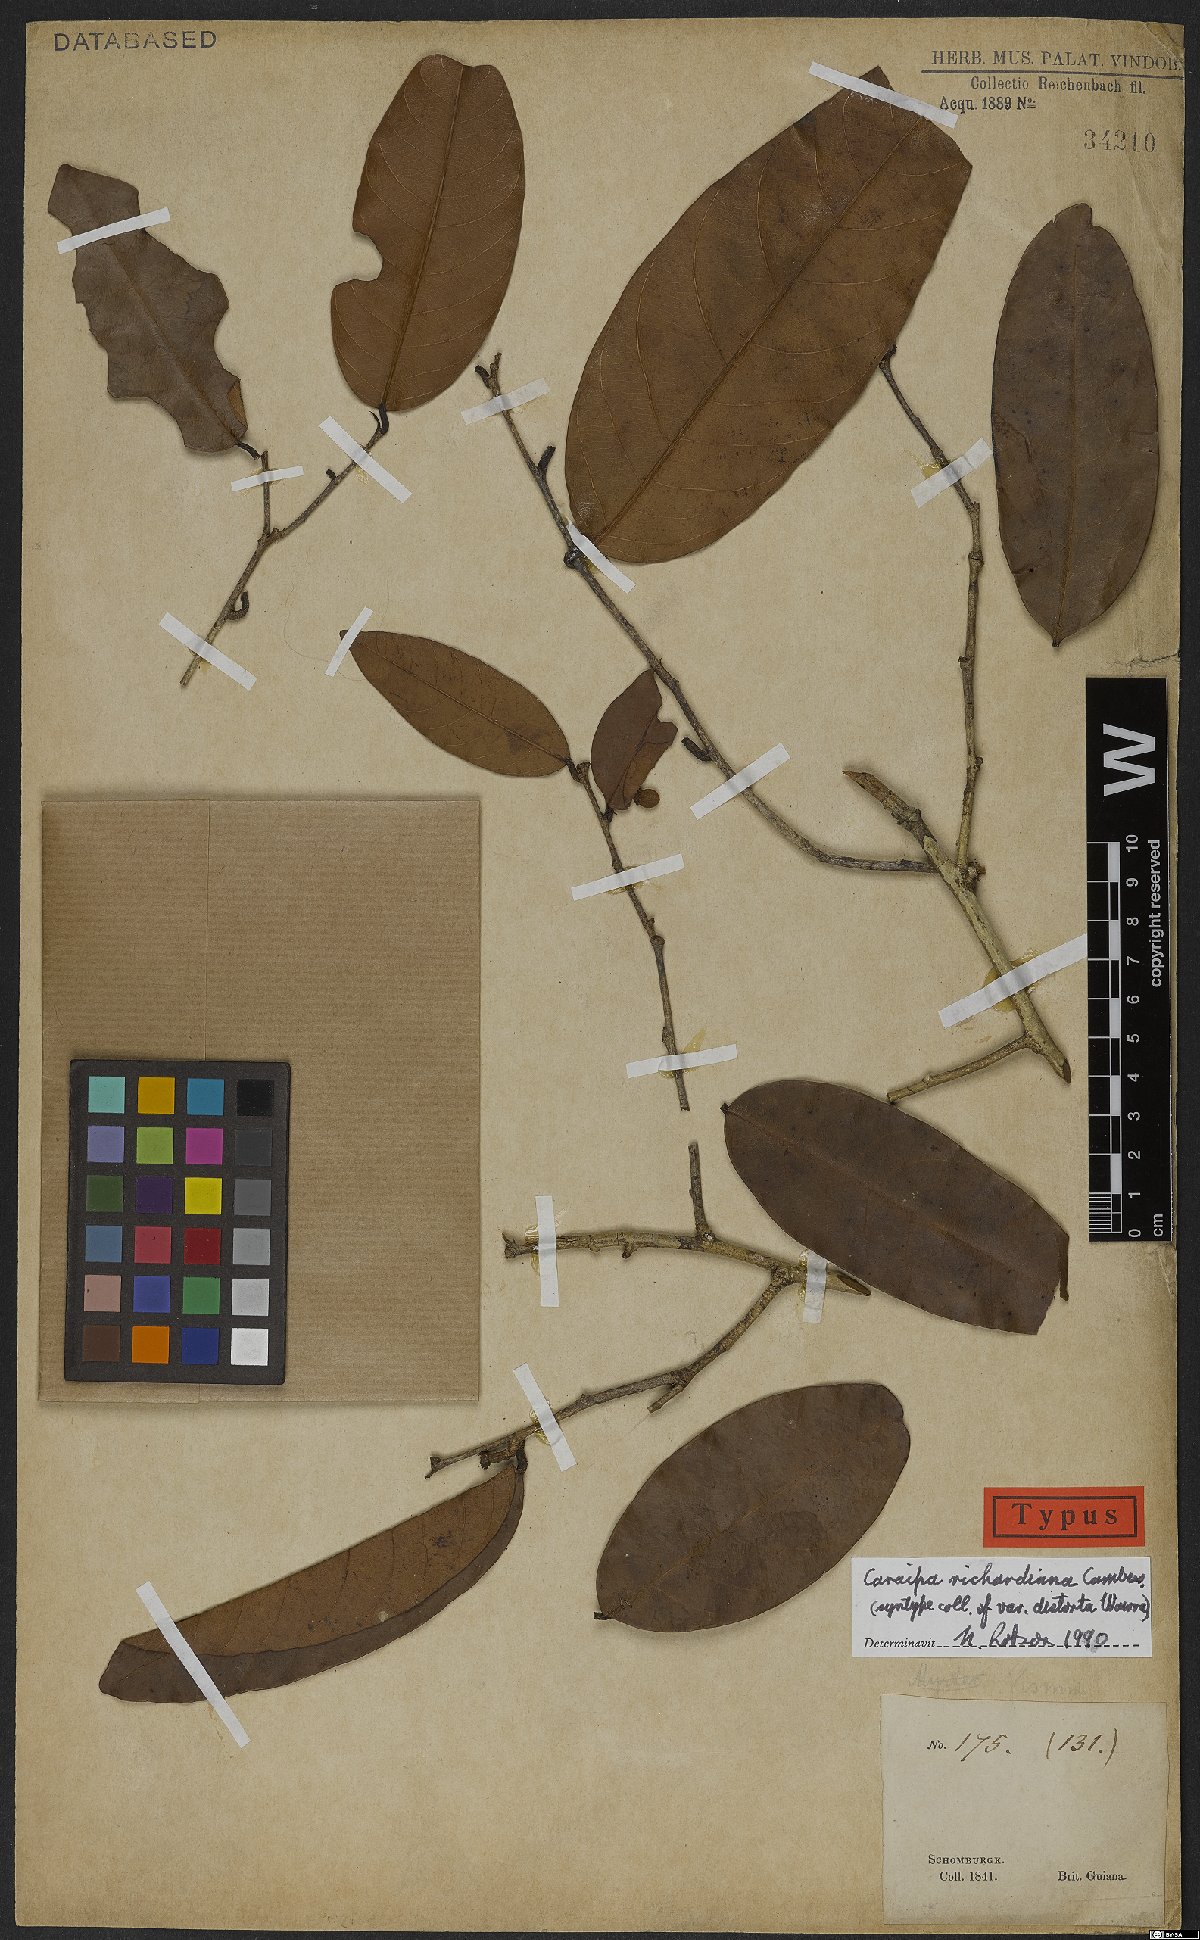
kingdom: Plantae
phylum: Tracheophyta
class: Magnoliopsida
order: Malpighiales
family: Calophyllaceae
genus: Caraipa
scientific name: Caraipa richardiana
